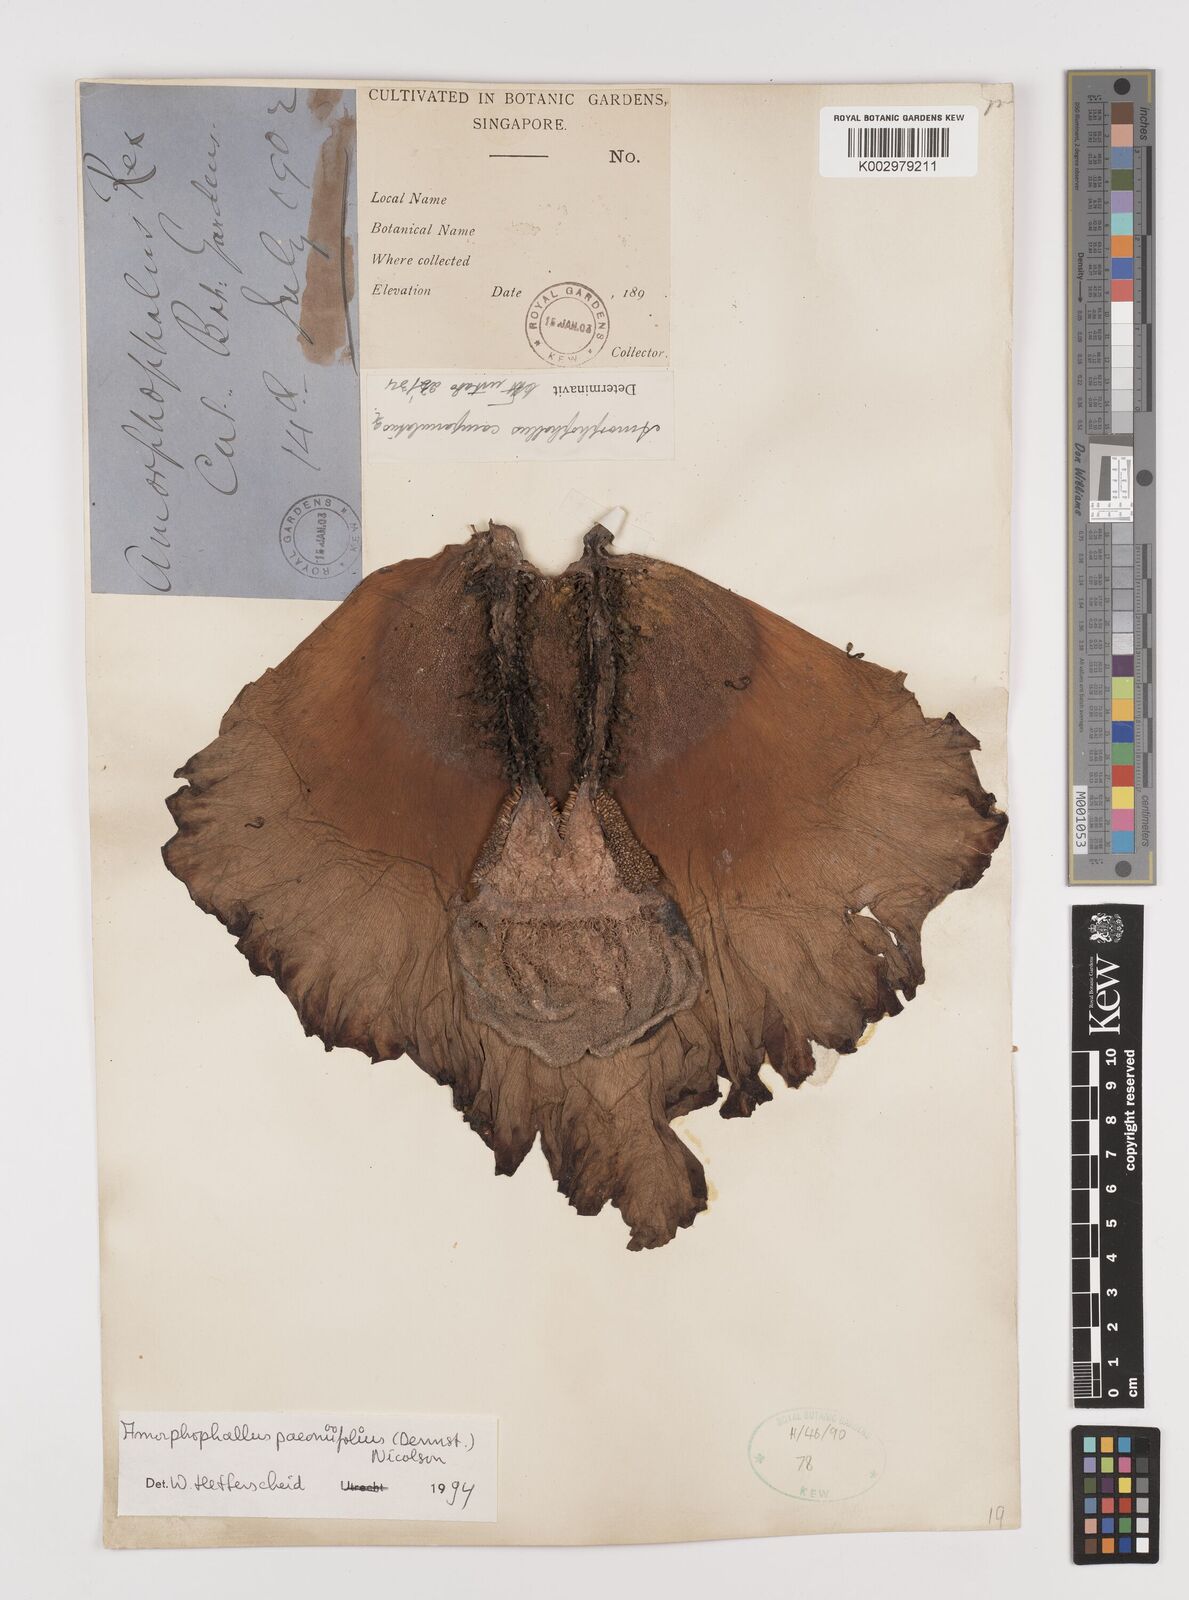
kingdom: Plantae
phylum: Tracheophyta
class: Liliopsida
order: Alismatales
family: Araceae
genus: Amorphophallus
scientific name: Amorphophallus paeoniifolius
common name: Telinga-potato
